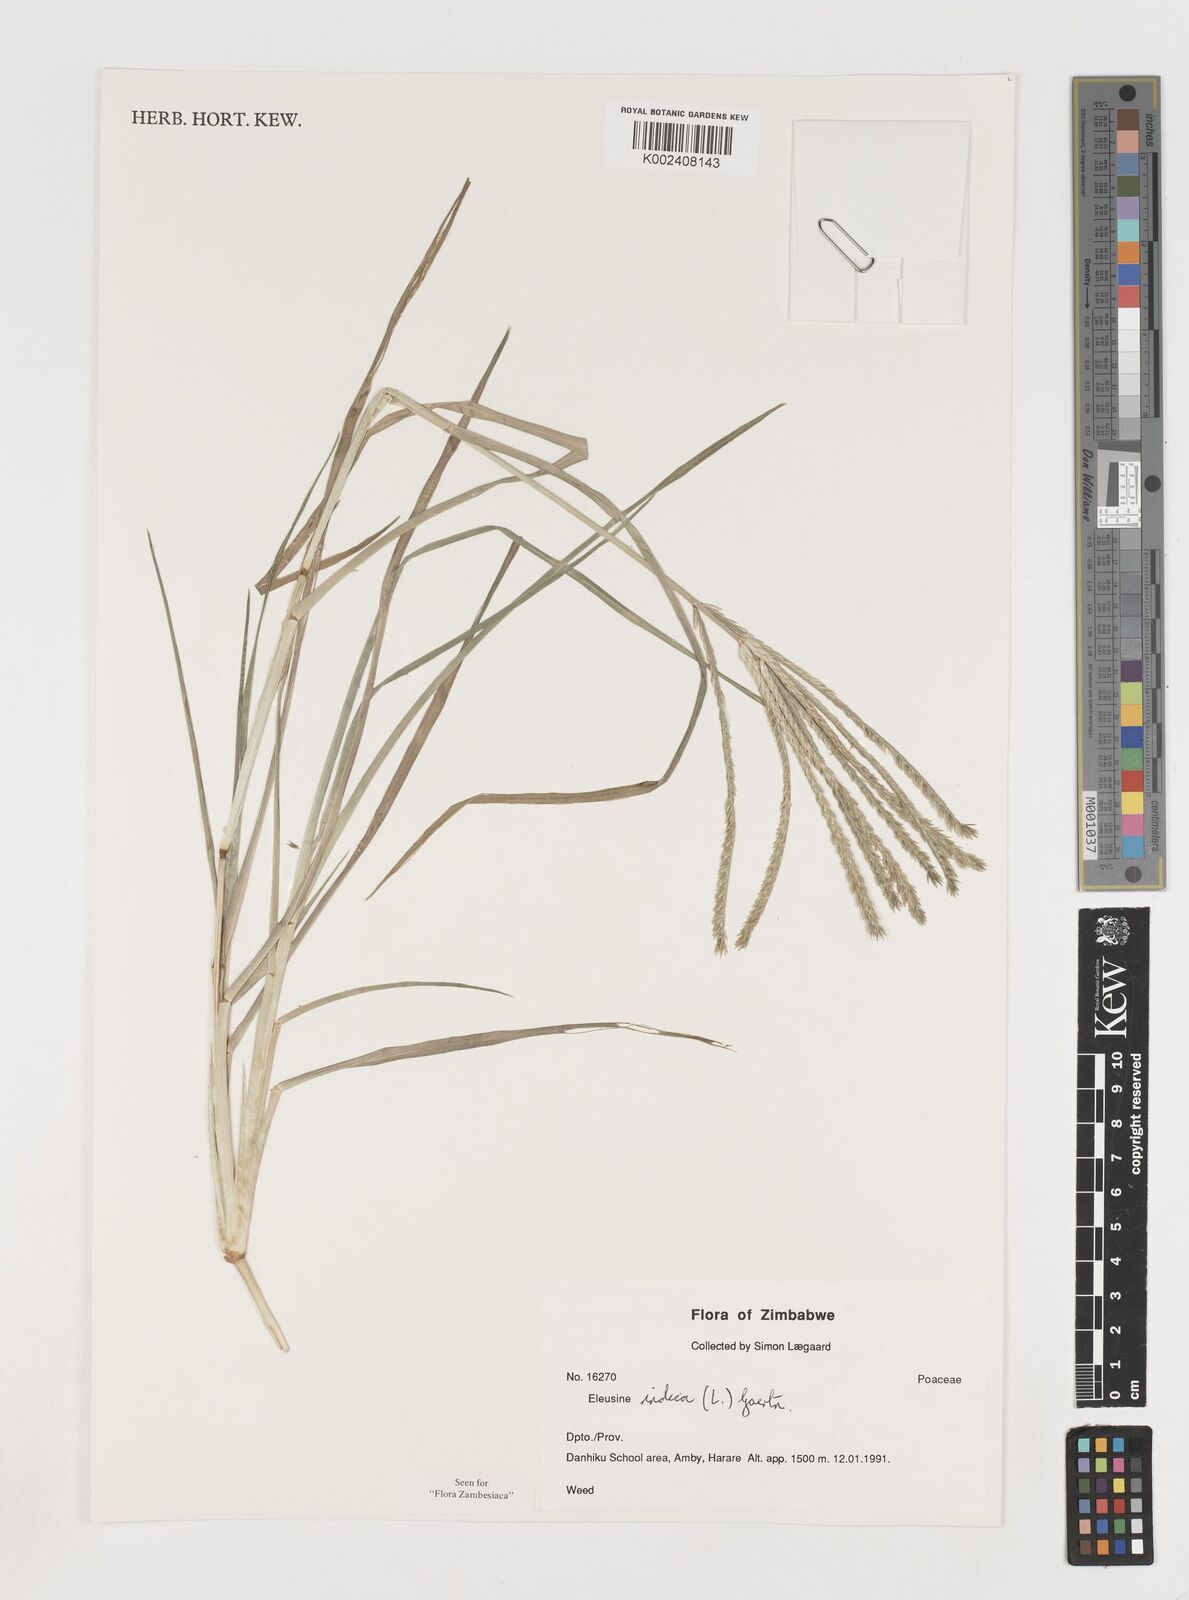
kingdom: Plantae
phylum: Tracheophyta
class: Liliopsida
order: Poales
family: Poaceae
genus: Eleusine
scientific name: Eleusine africana
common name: Wild african finger millet
